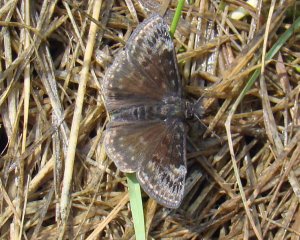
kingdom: Animalia
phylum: Arthropoda
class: Insecta
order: Lepidoptera
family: Hesperiidae
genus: Gesta
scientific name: Gesta
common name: Wild Indigo Duskywing
